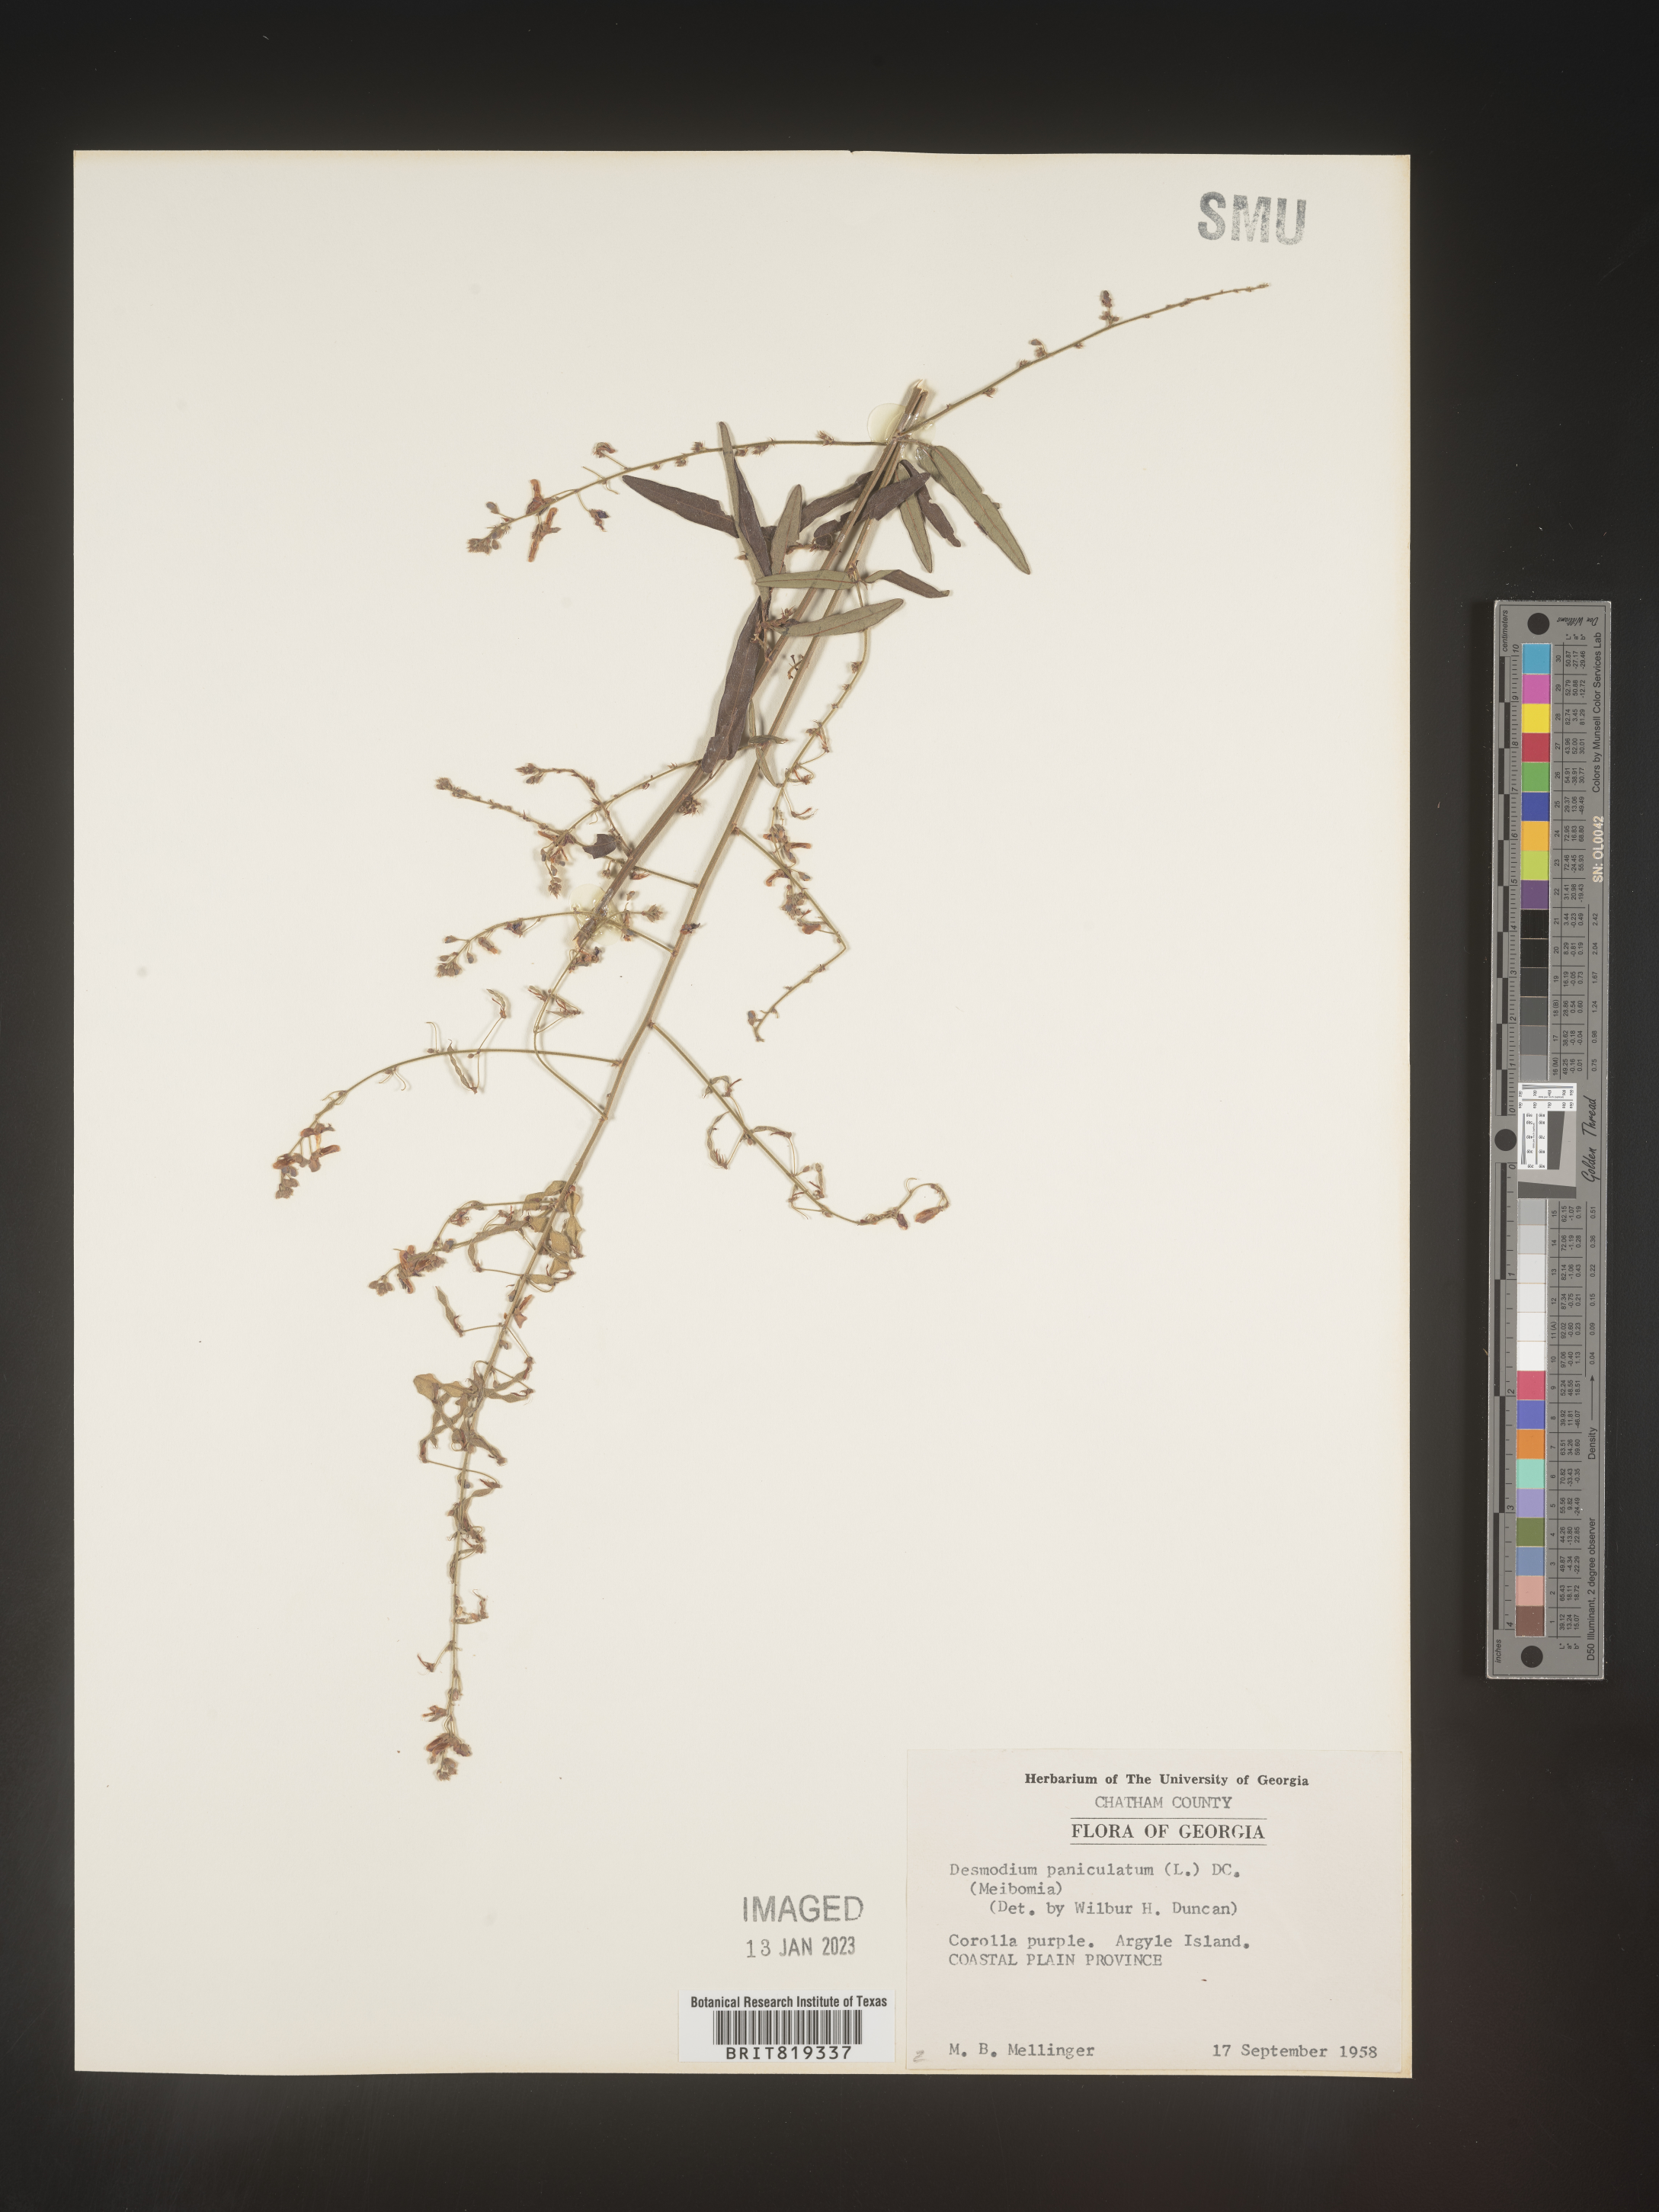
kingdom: Plantae
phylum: Tracheophyta
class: Magnoliopsida
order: Fabales
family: Fabaceae
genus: Desmodium
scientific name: Desmodium paniculatum
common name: Panicled tick-clover
